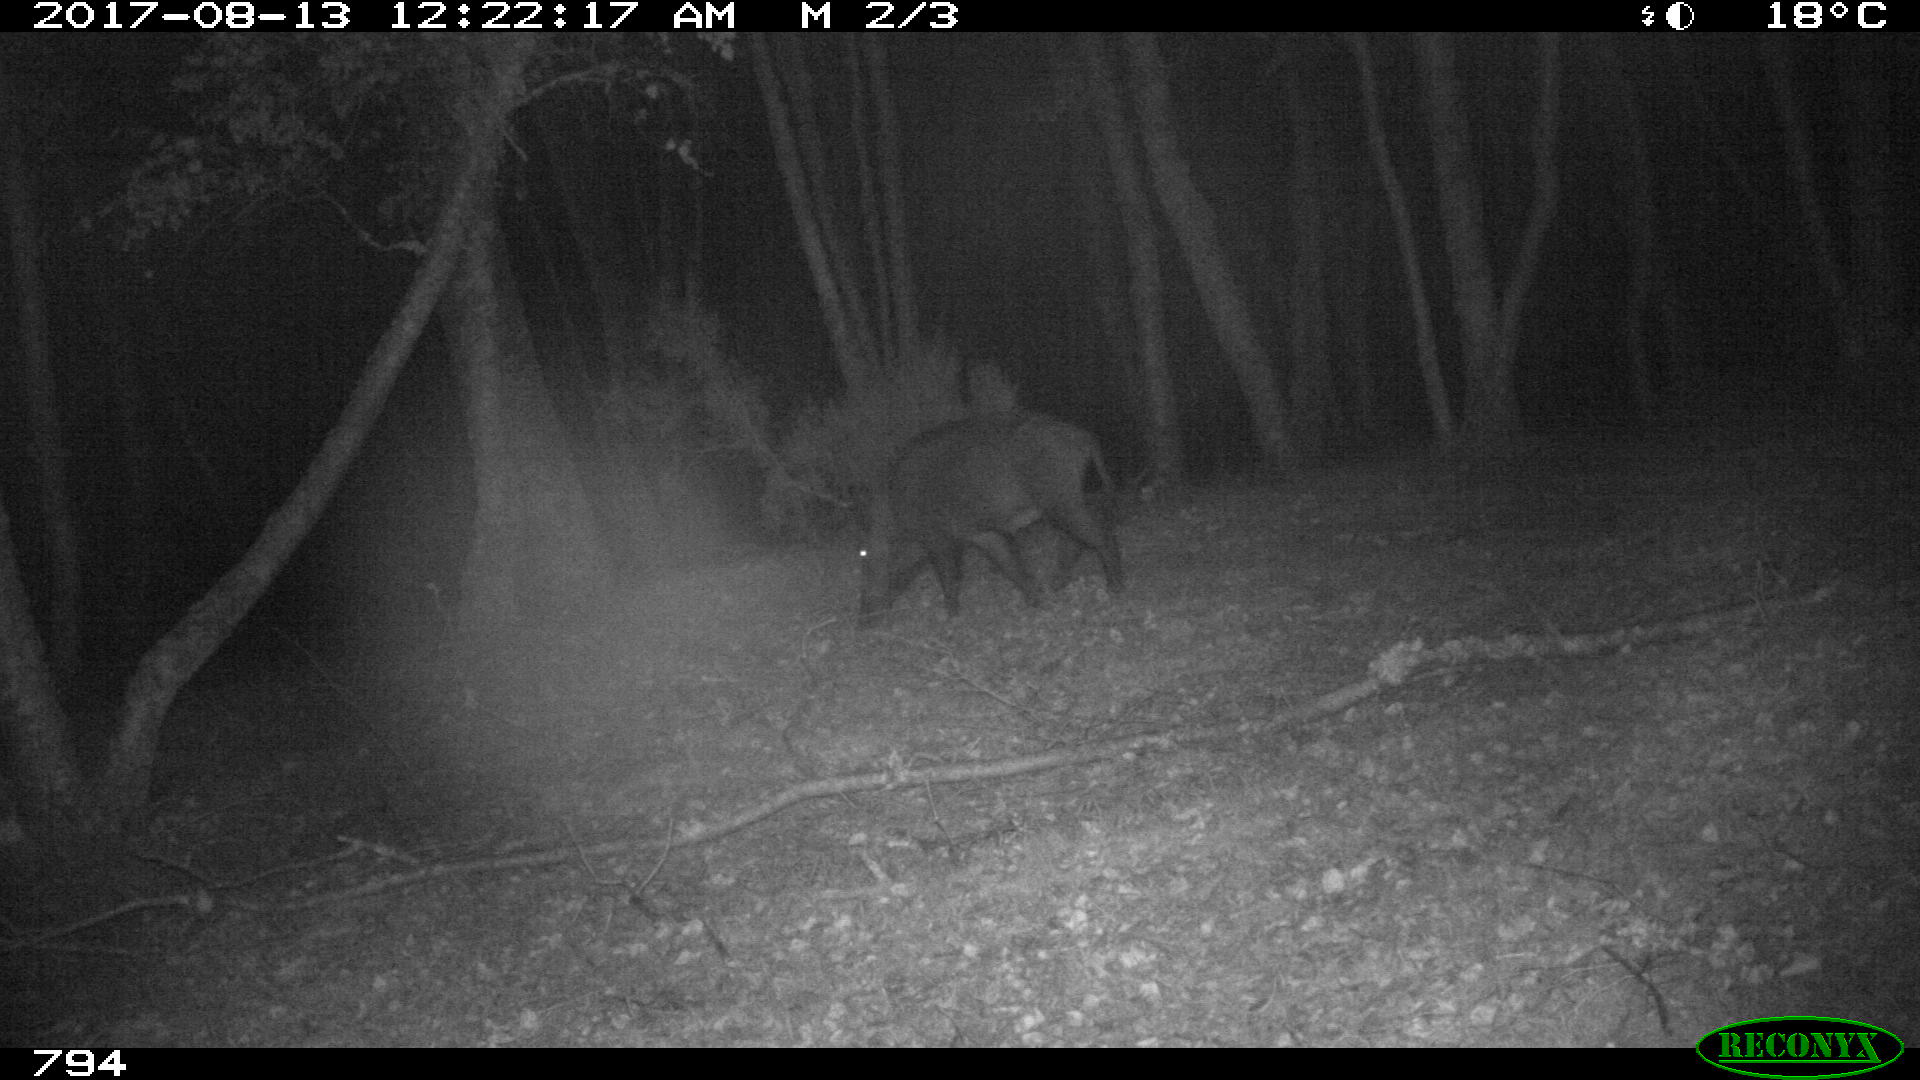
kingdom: Animalia
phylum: Chordata
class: Mammalia
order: Artiodactyla
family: Suidae
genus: Sus
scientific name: Sus scrofa
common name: Wild boar
